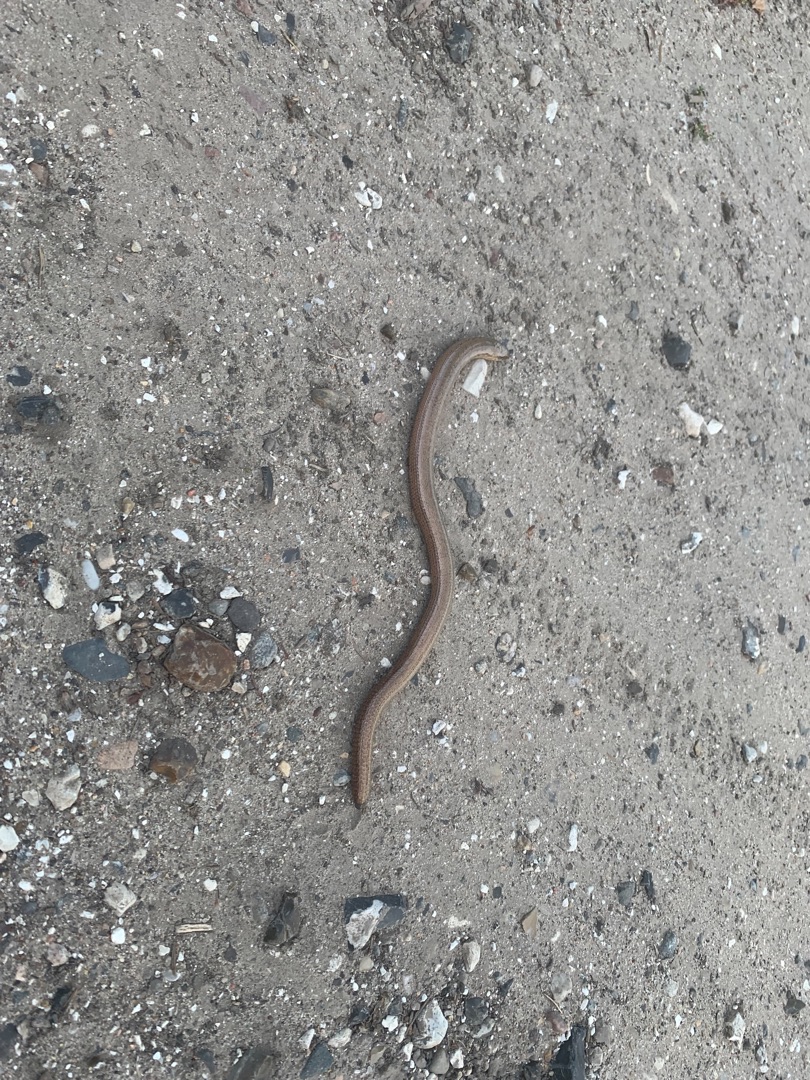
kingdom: Animalia
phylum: Chordata
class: Squamata
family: Anguidae
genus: Anguis
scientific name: Anguis fragilis
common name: Stålorm
